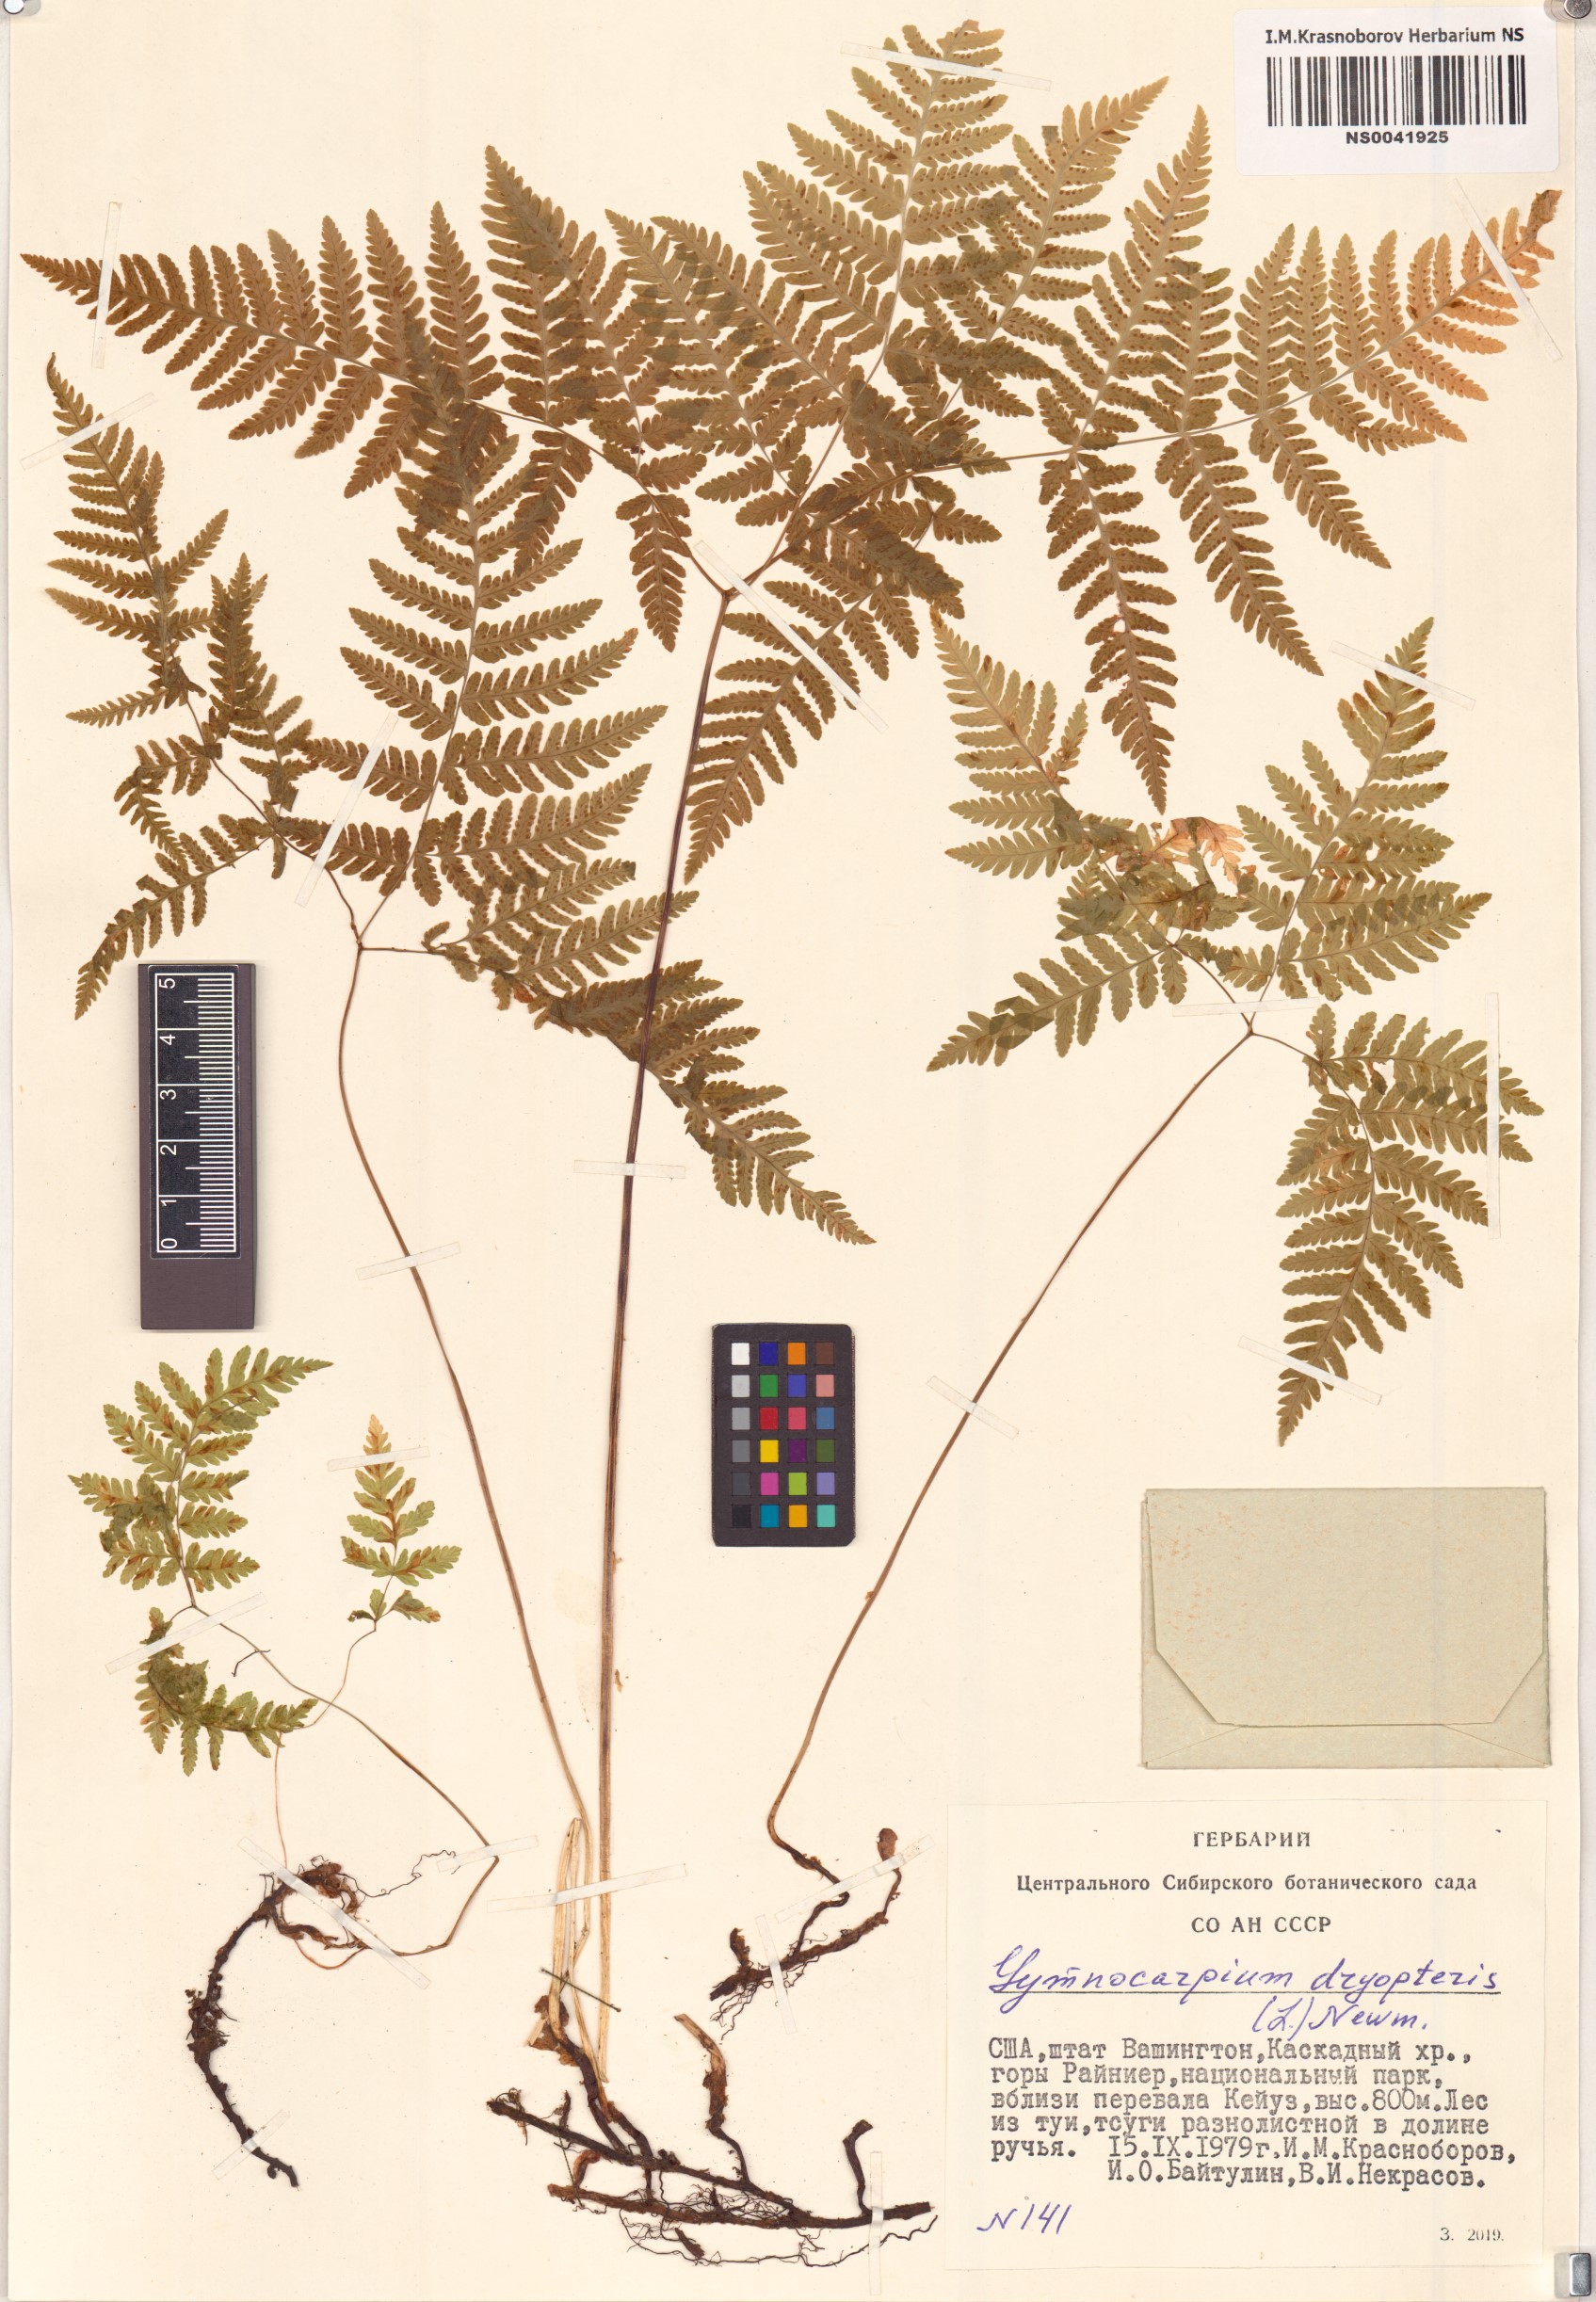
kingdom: Plantae
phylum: Tracheophyta
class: Polypodiopsida
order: Polypodiales
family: Cystopteridaceae
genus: Gymnocarpium
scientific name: Gymnocarpium dryopteris
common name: Oak fern
